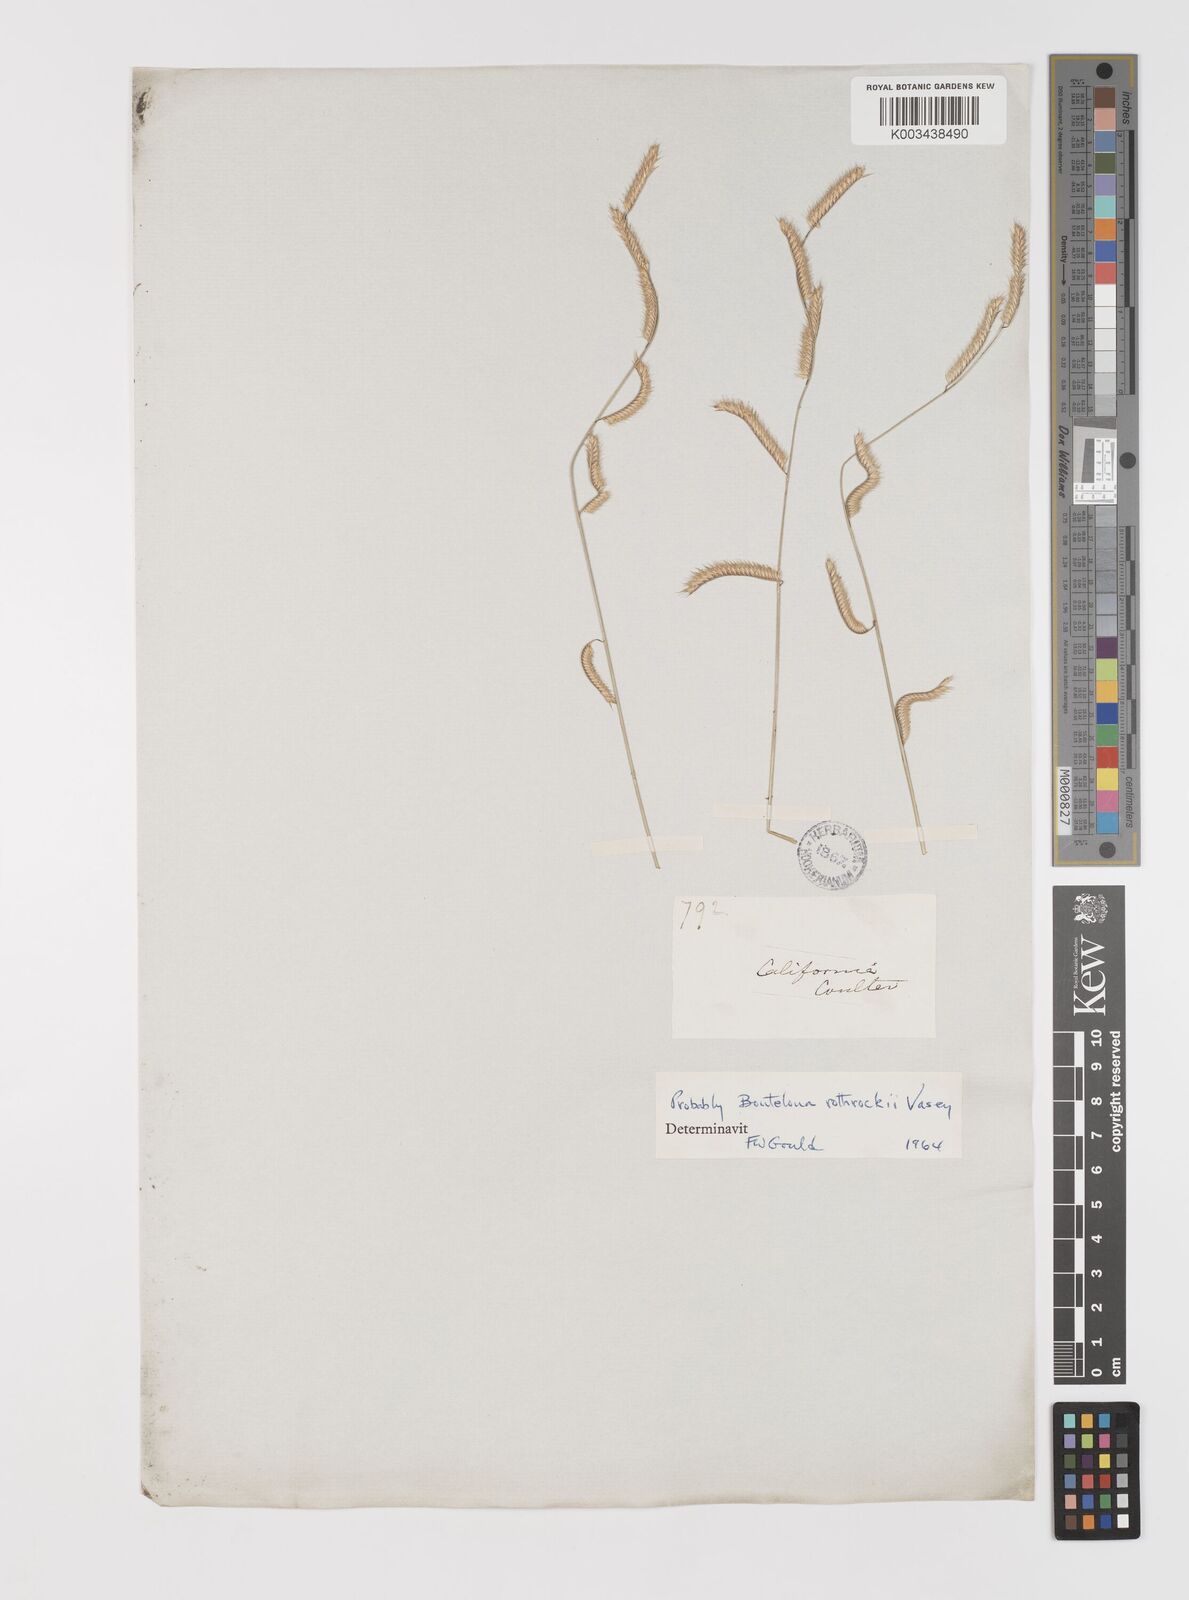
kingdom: Plantae
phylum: Tracheophyta
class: Liliopsida
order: Poales
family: Poaceae
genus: Bouteloua
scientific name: Bouteloua
